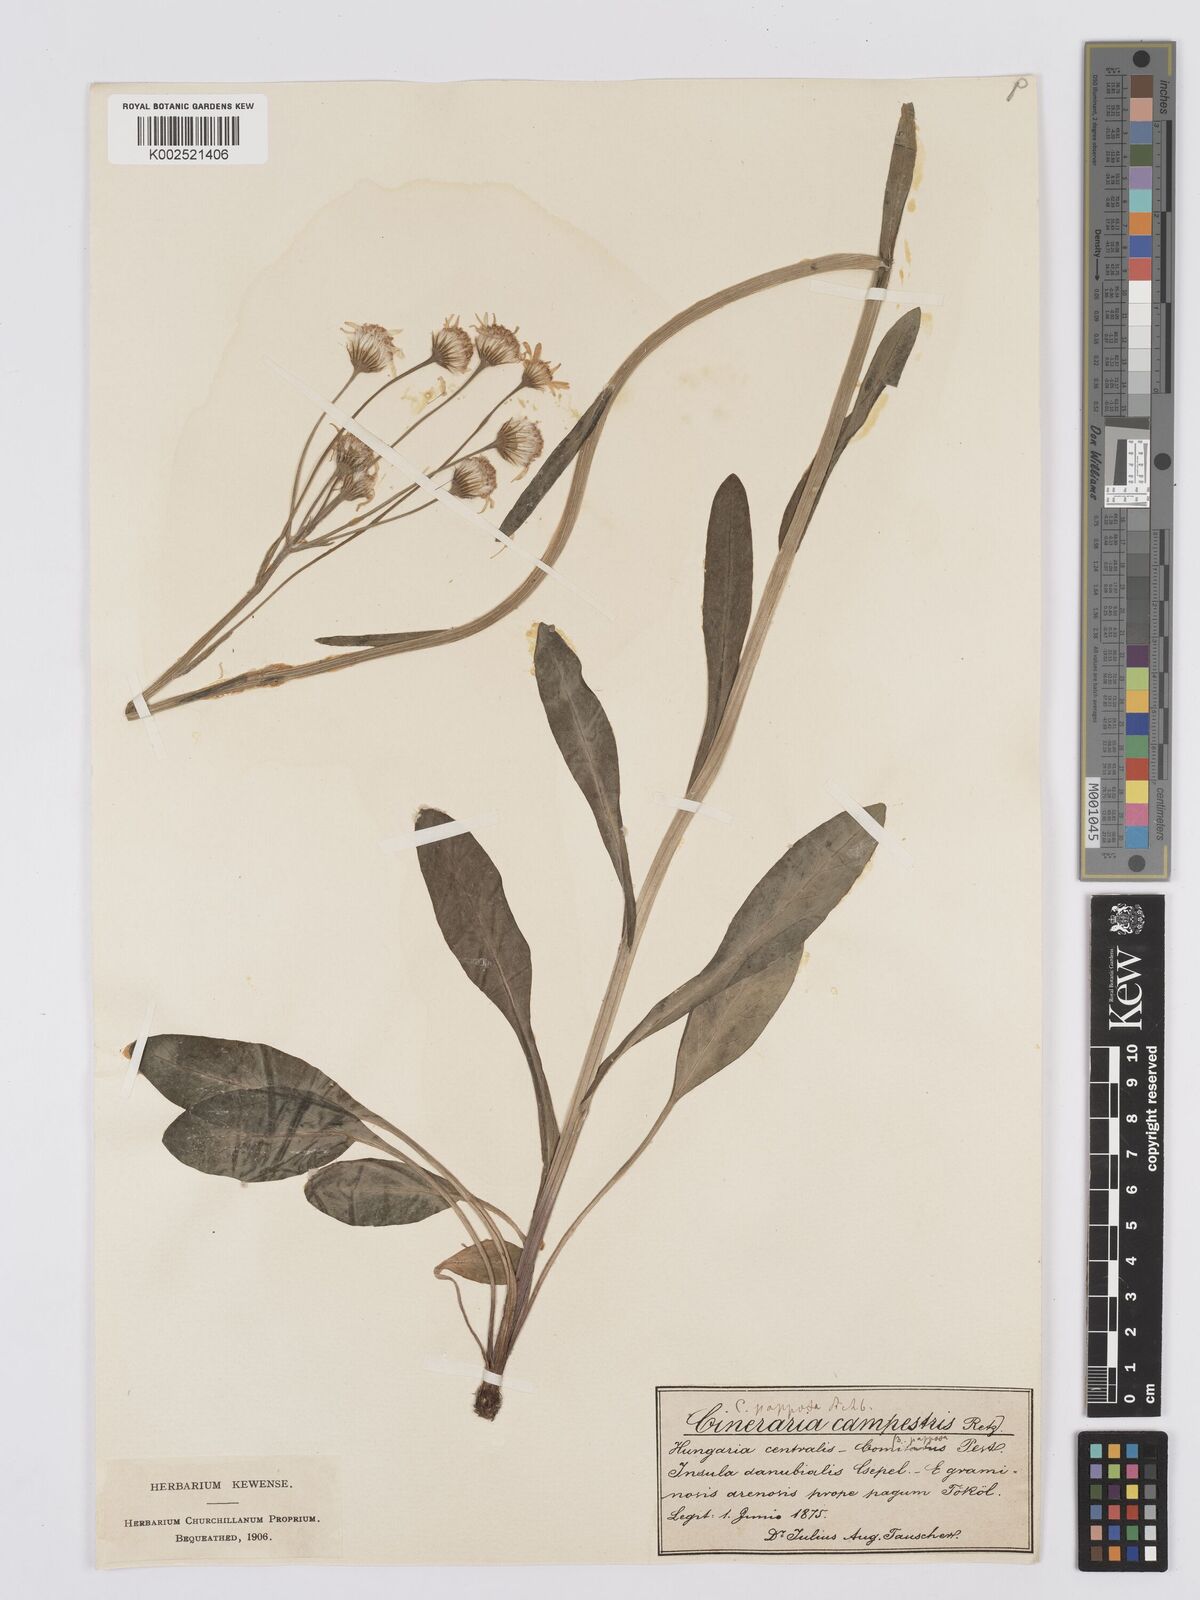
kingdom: Plantae
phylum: Tracheophyta
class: Magnoliopsida
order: Asterales
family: Asteraceae
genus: Tephroseris
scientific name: Tephroseris helenitis
